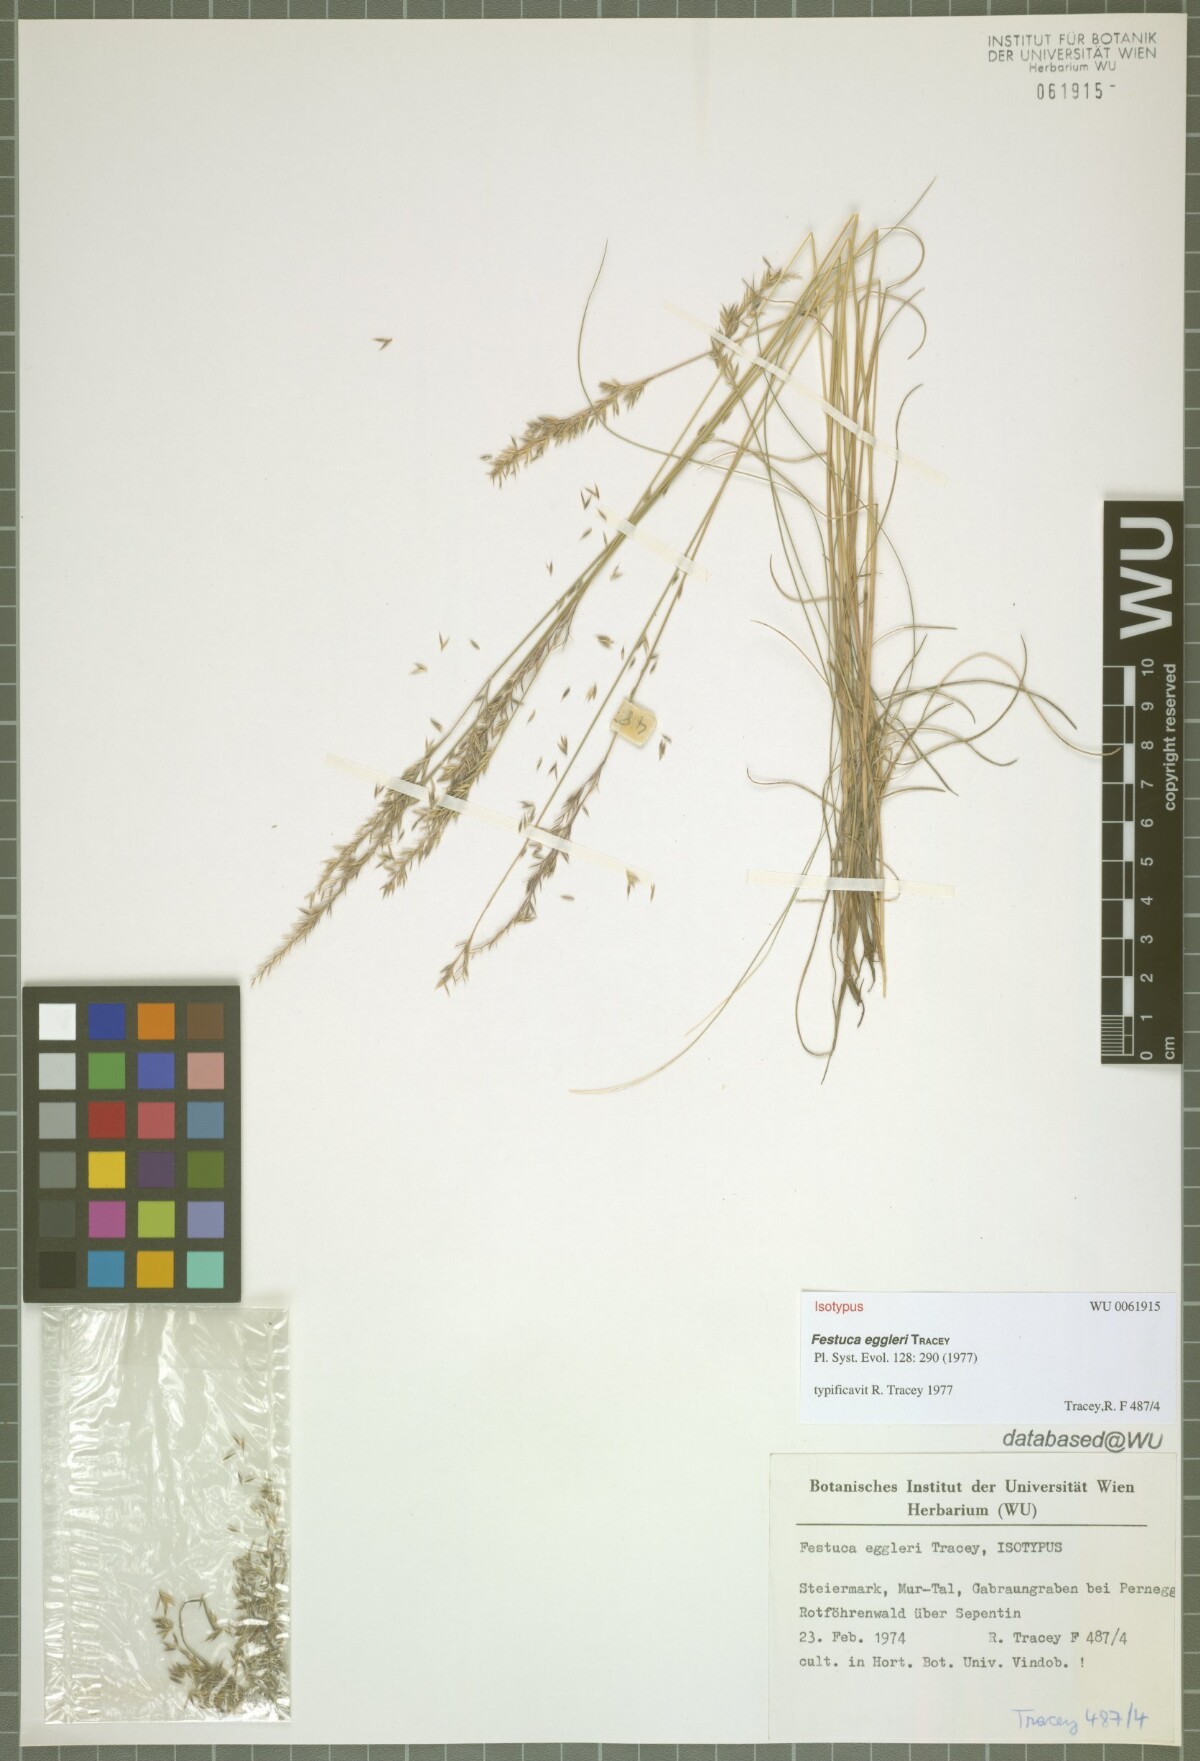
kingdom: Plantae
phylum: Tracheophyta
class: Liliopsida
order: Poales
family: Poaceae
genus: Festuca
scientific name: Festuca eggleri
